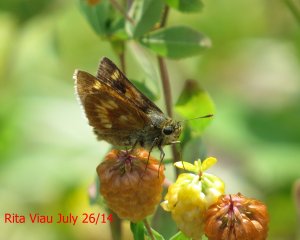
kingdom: Animalia
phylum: Arthropoda
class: Insecta
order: Lepidoptera
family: Hesperiidae
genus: Polites
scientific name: Polites
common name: Long Dash Skipper
